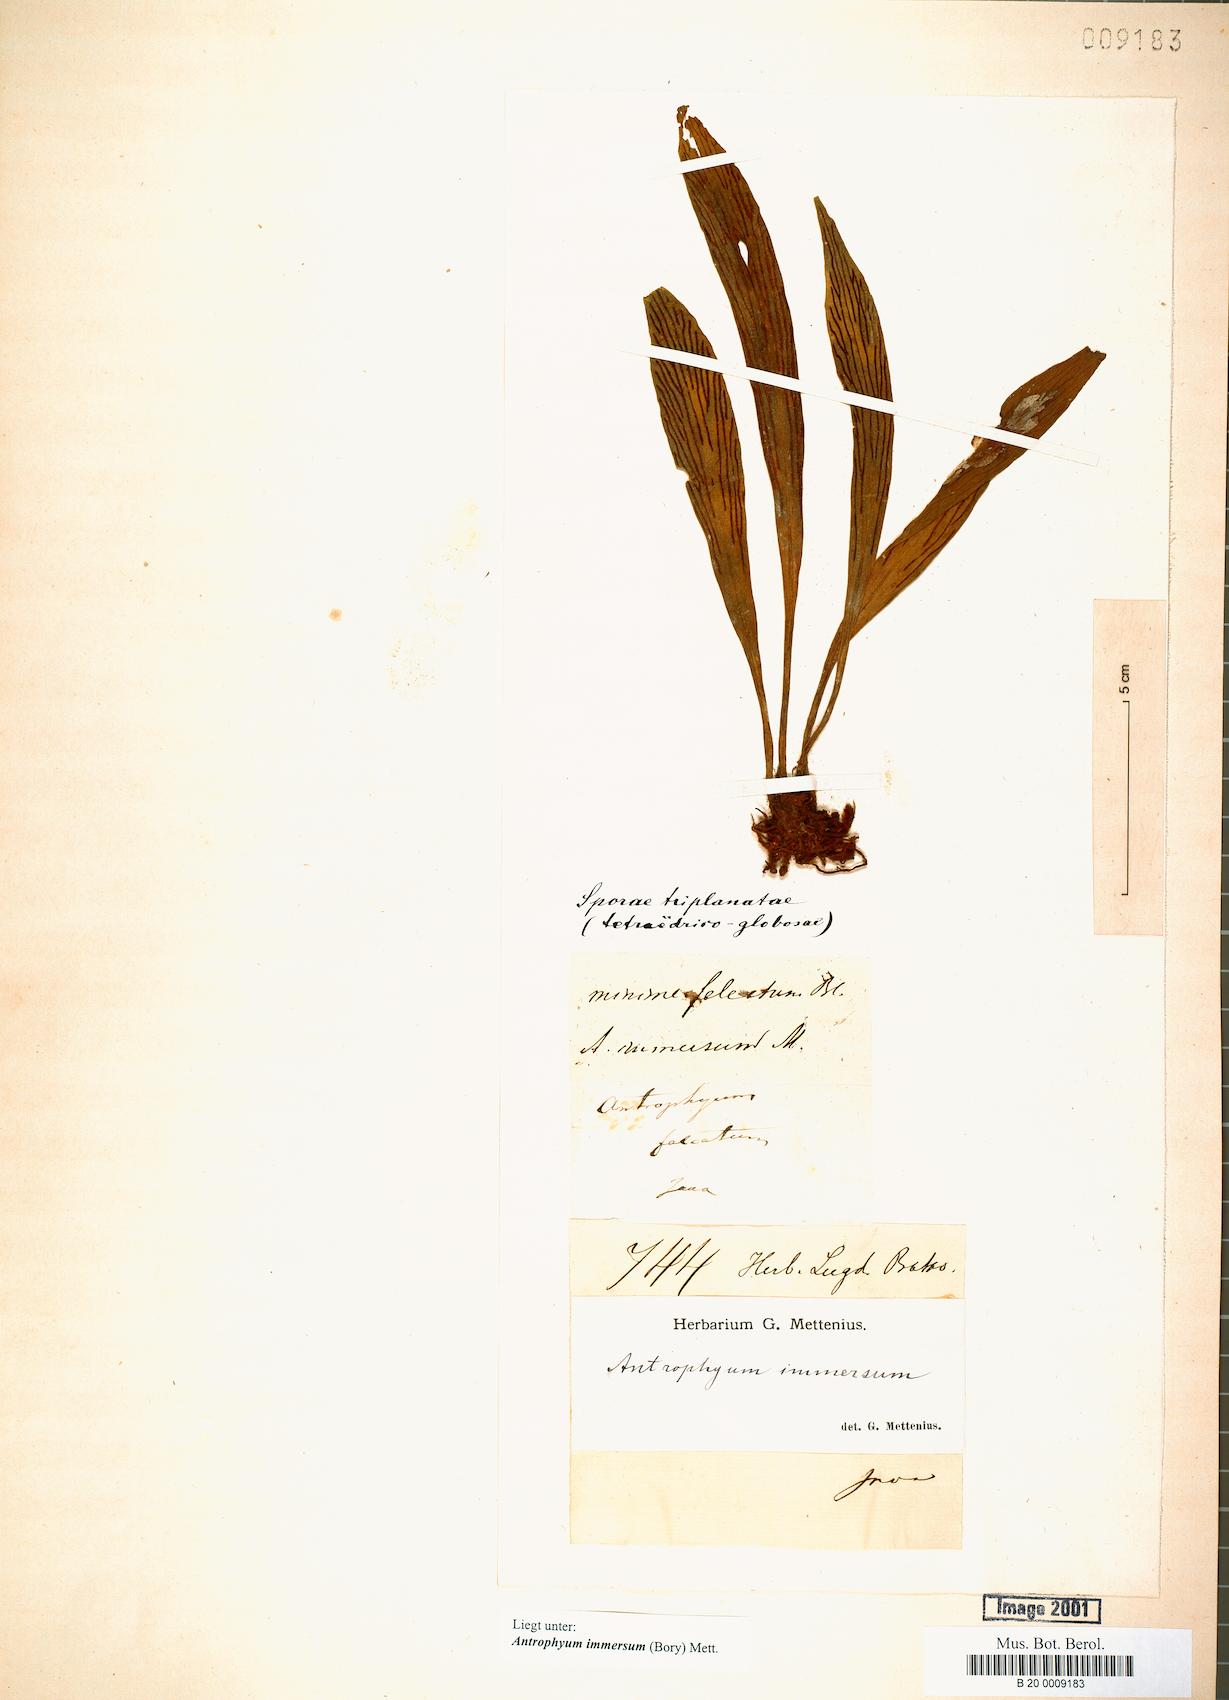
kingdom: Plantae
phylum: Tracheophyta
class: Polypodiopsida
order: Polypodiales
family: Pteridaceae
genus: Antrophyum
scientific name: Antrophyum parvulum
